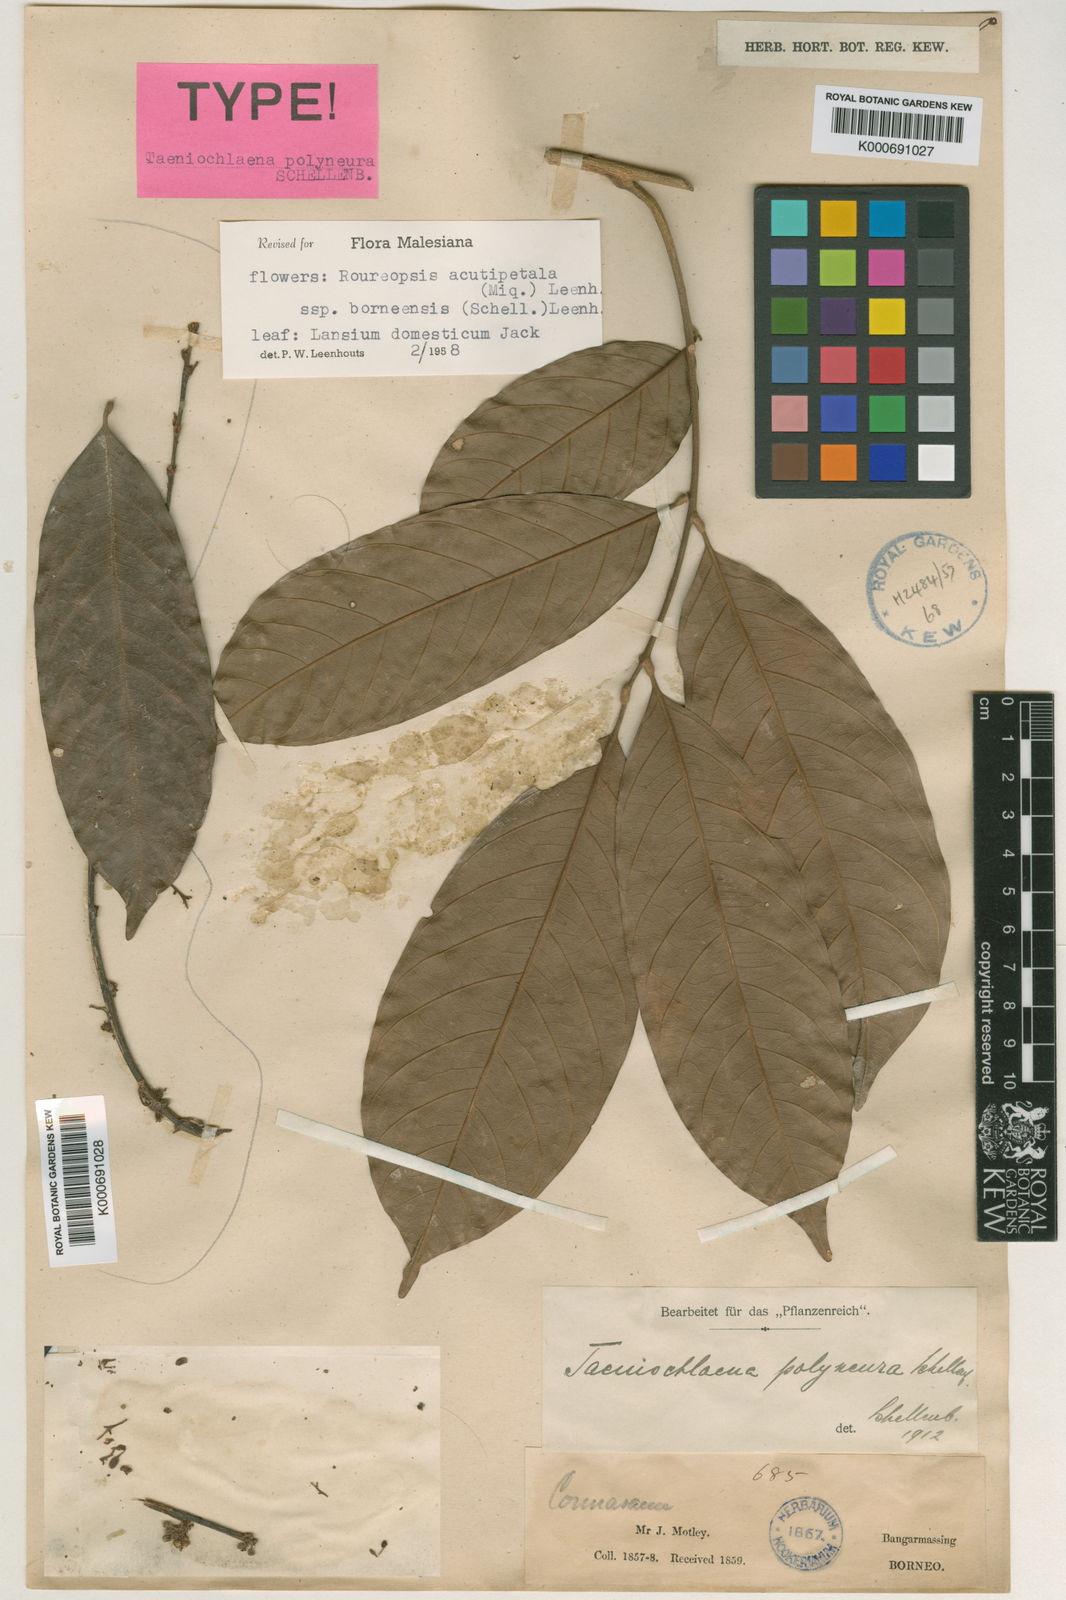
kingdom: Plantae
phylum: Tracheophyta
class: Magnoliopsida
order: Oxalidales
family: Connaraceae
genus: Rourea
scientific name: Rourea acutipetala
